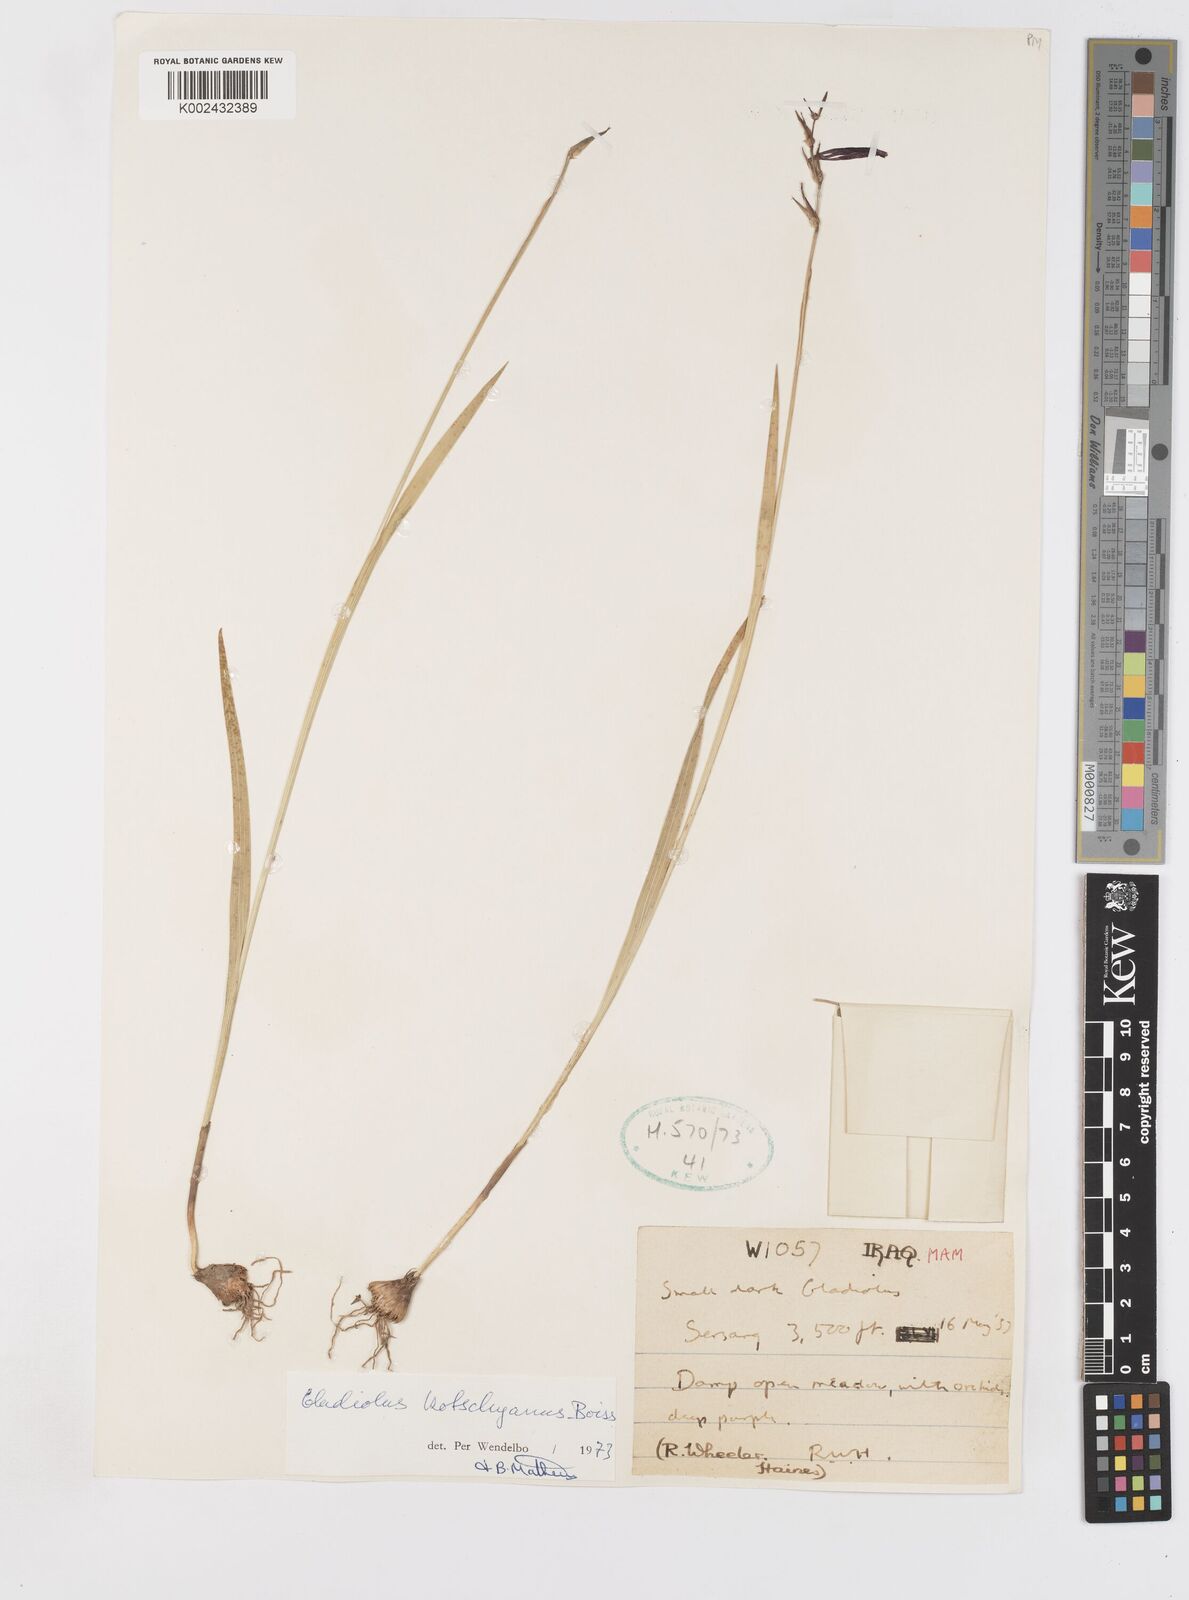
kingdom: Plantae
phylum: Tracheophyta
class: Liliopsida
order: Asparagales
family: Iridaceae
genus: Gladiolus
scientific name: Gladiolus kotschyanus
